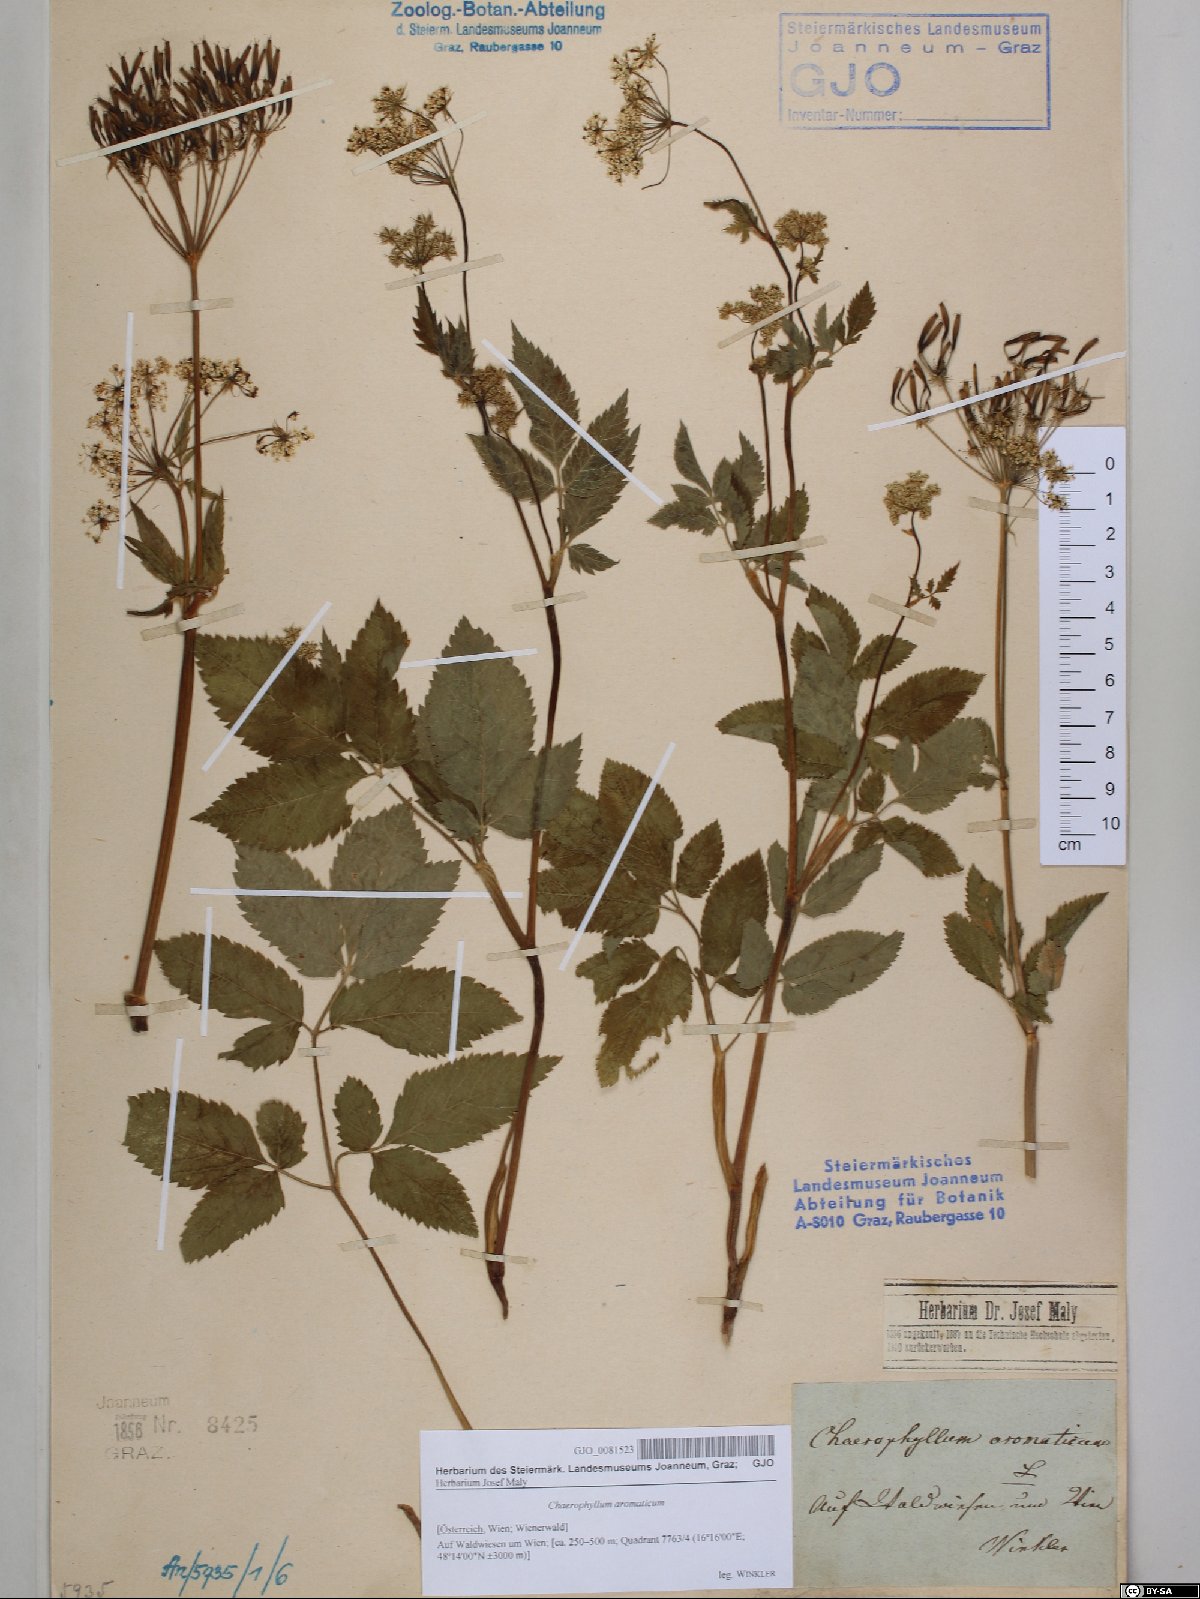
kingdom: Plantae
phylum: Tracheophyta
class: Magnoliopsida
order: Apiales
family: Apiaceae
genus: Chaerophyllum
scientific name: Chaerophyllum aromaticum
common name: Broadleaf chervil
